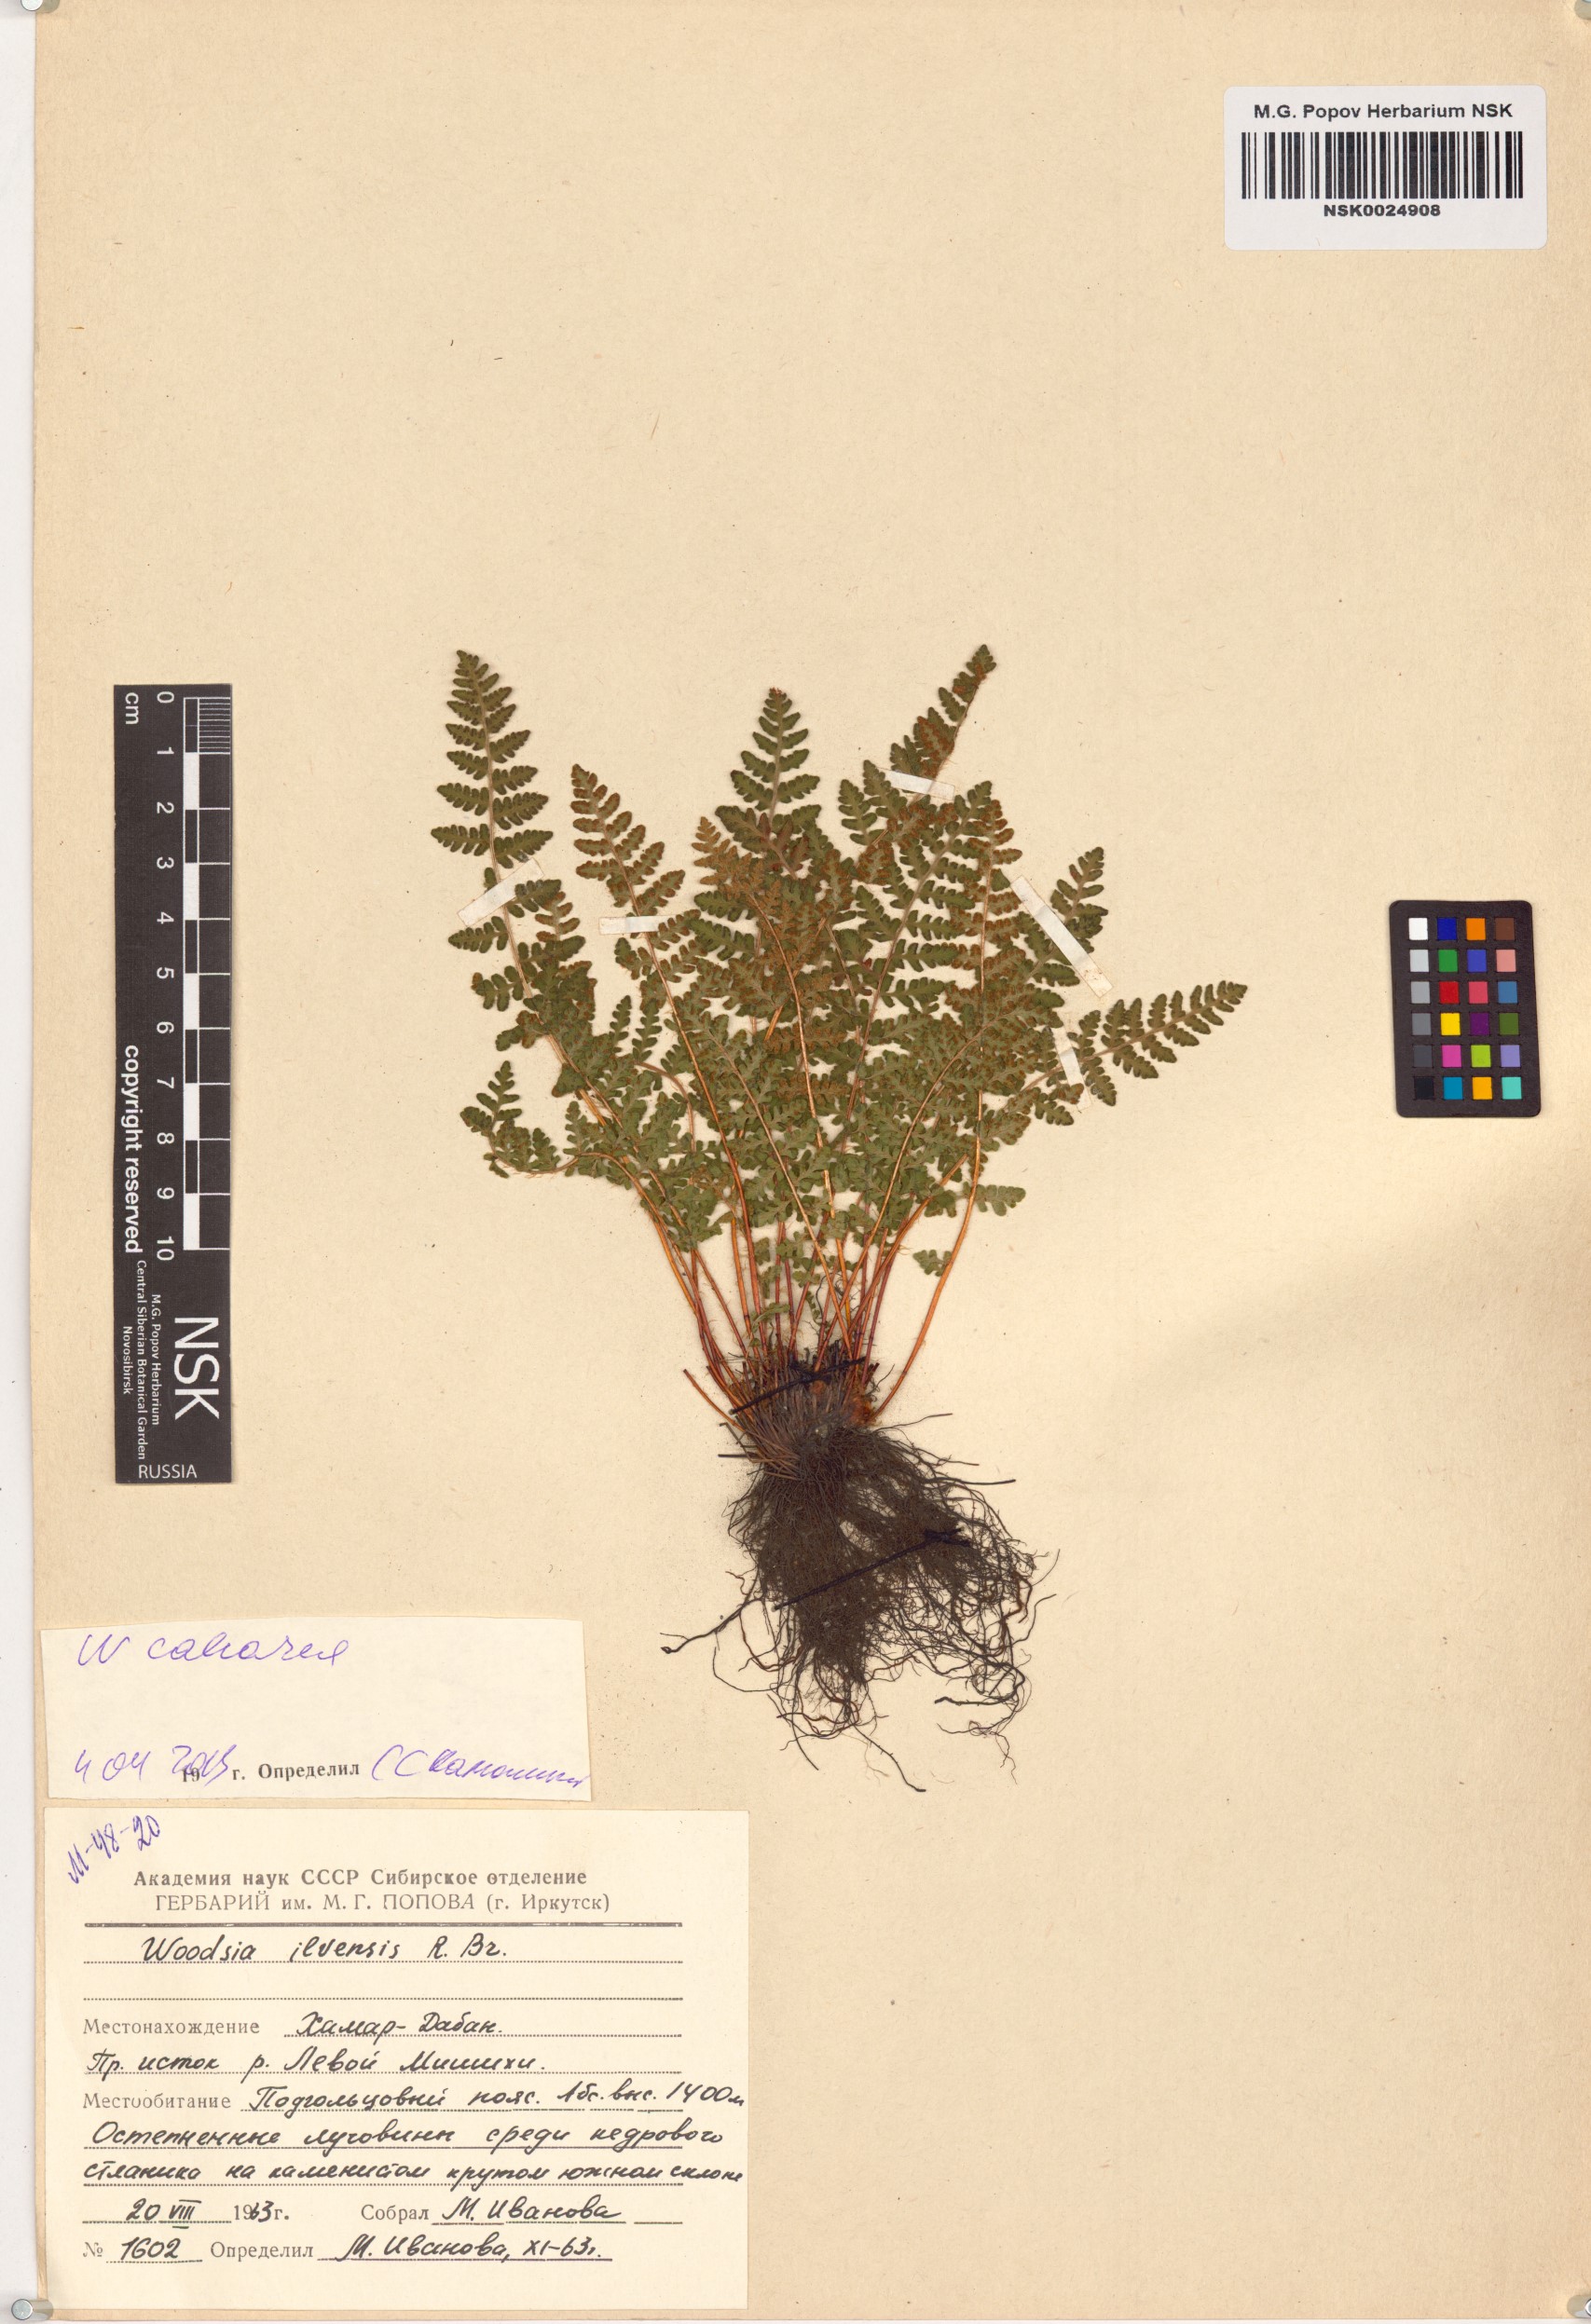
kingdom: Plantae
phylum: Tracheophyta
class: Polypodiopsida
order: Polypodiales
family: Woodsiaceae
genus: Woodsia
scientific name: Woodsia calcarea
